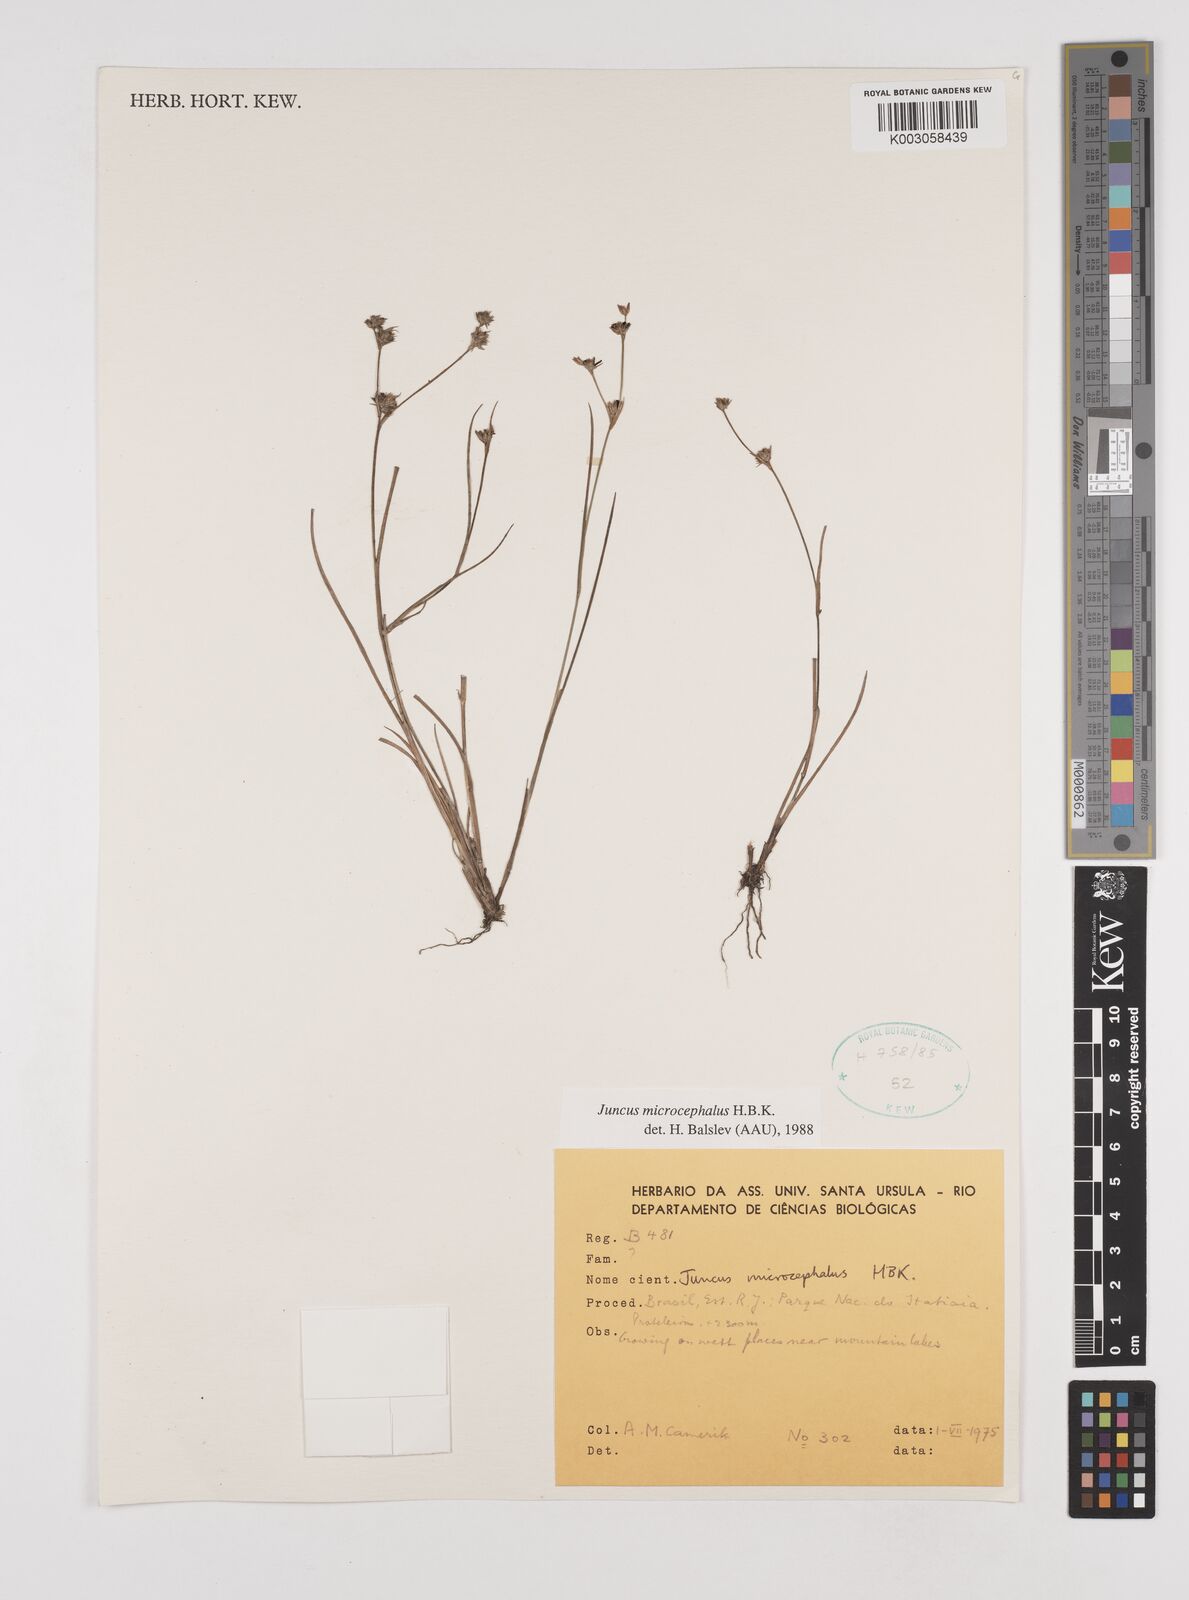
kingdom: Plantae
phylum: Tracheophyta
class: Liliopsida
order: Poales
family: Juncaceae
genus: Juncus
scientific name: Juncus microcephalus
